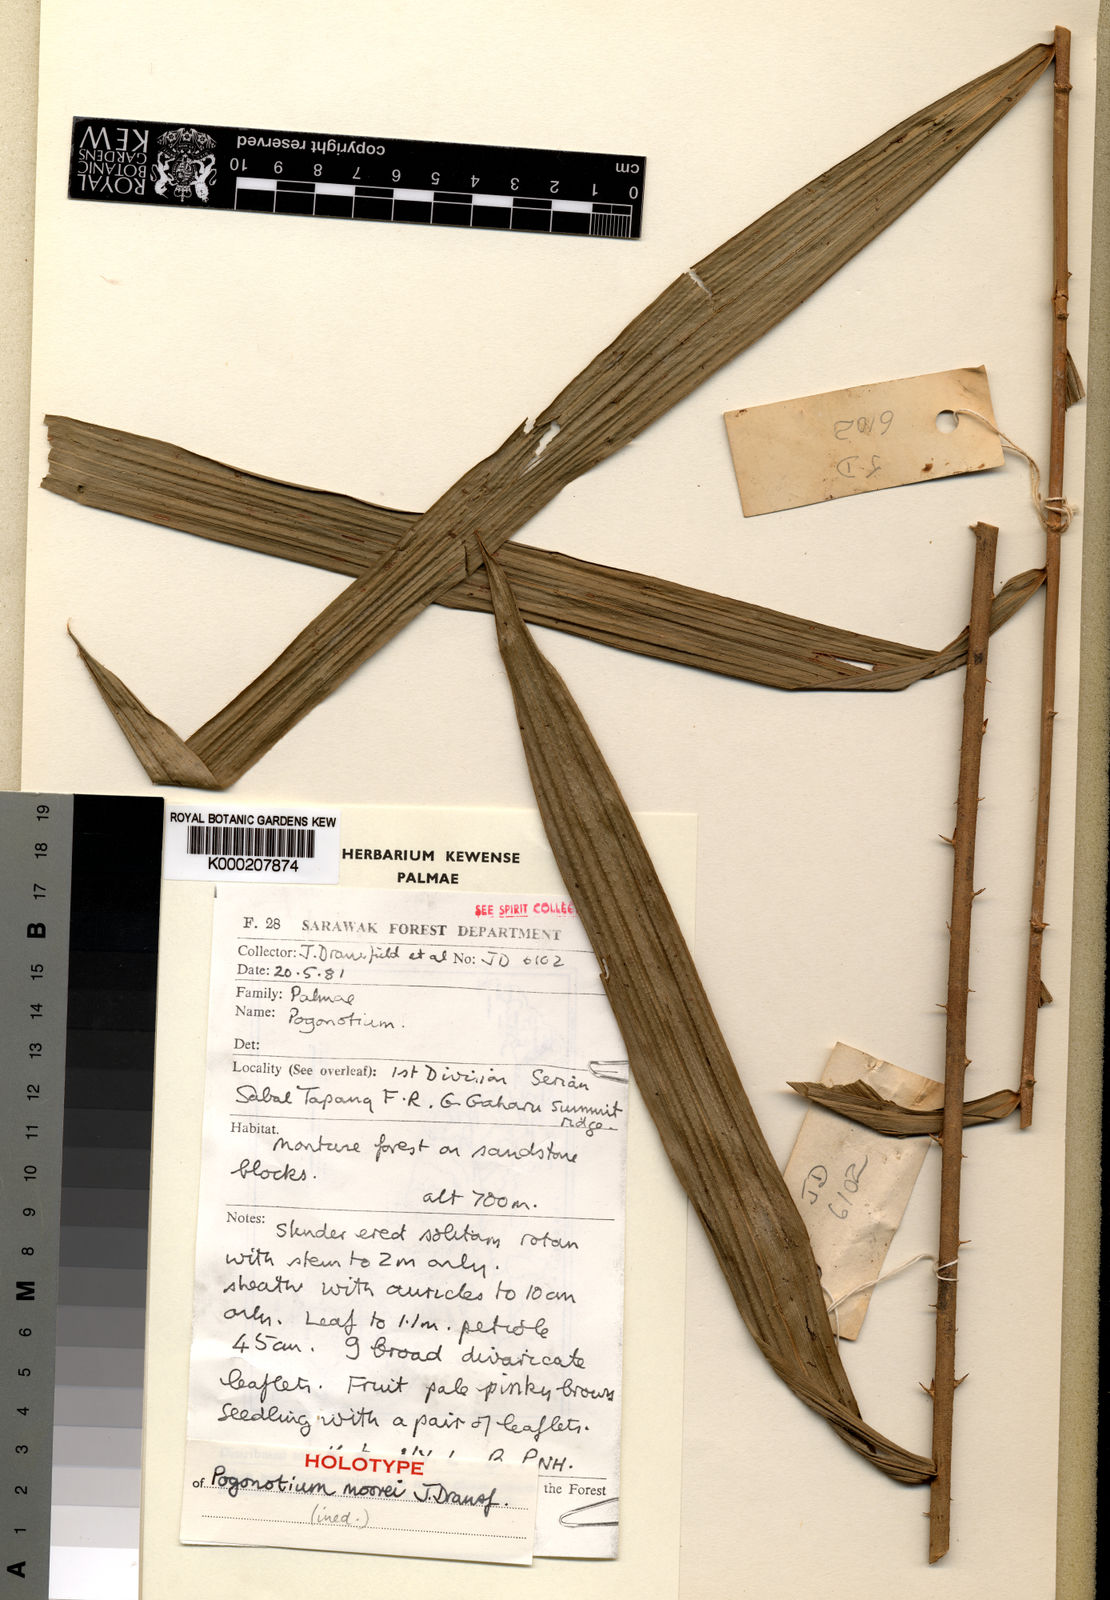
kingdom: Plantae
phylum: Tracheophyta
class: Liliopsida
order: Arecales
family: Arecaceae
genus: Calamus
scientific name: Calamus moorei
